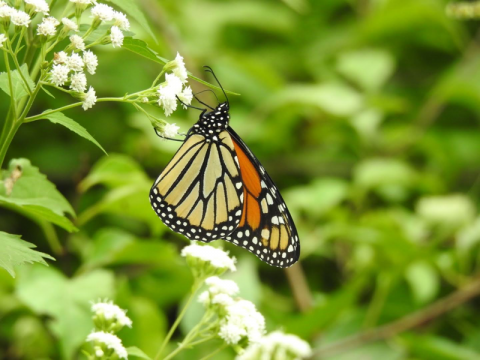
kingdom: Animalia
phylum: Arthropoda
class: Insecta
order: Lepidoptera
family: Nymphalidae
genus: Danaus
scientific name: Danaus plexippus
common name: Monarch
